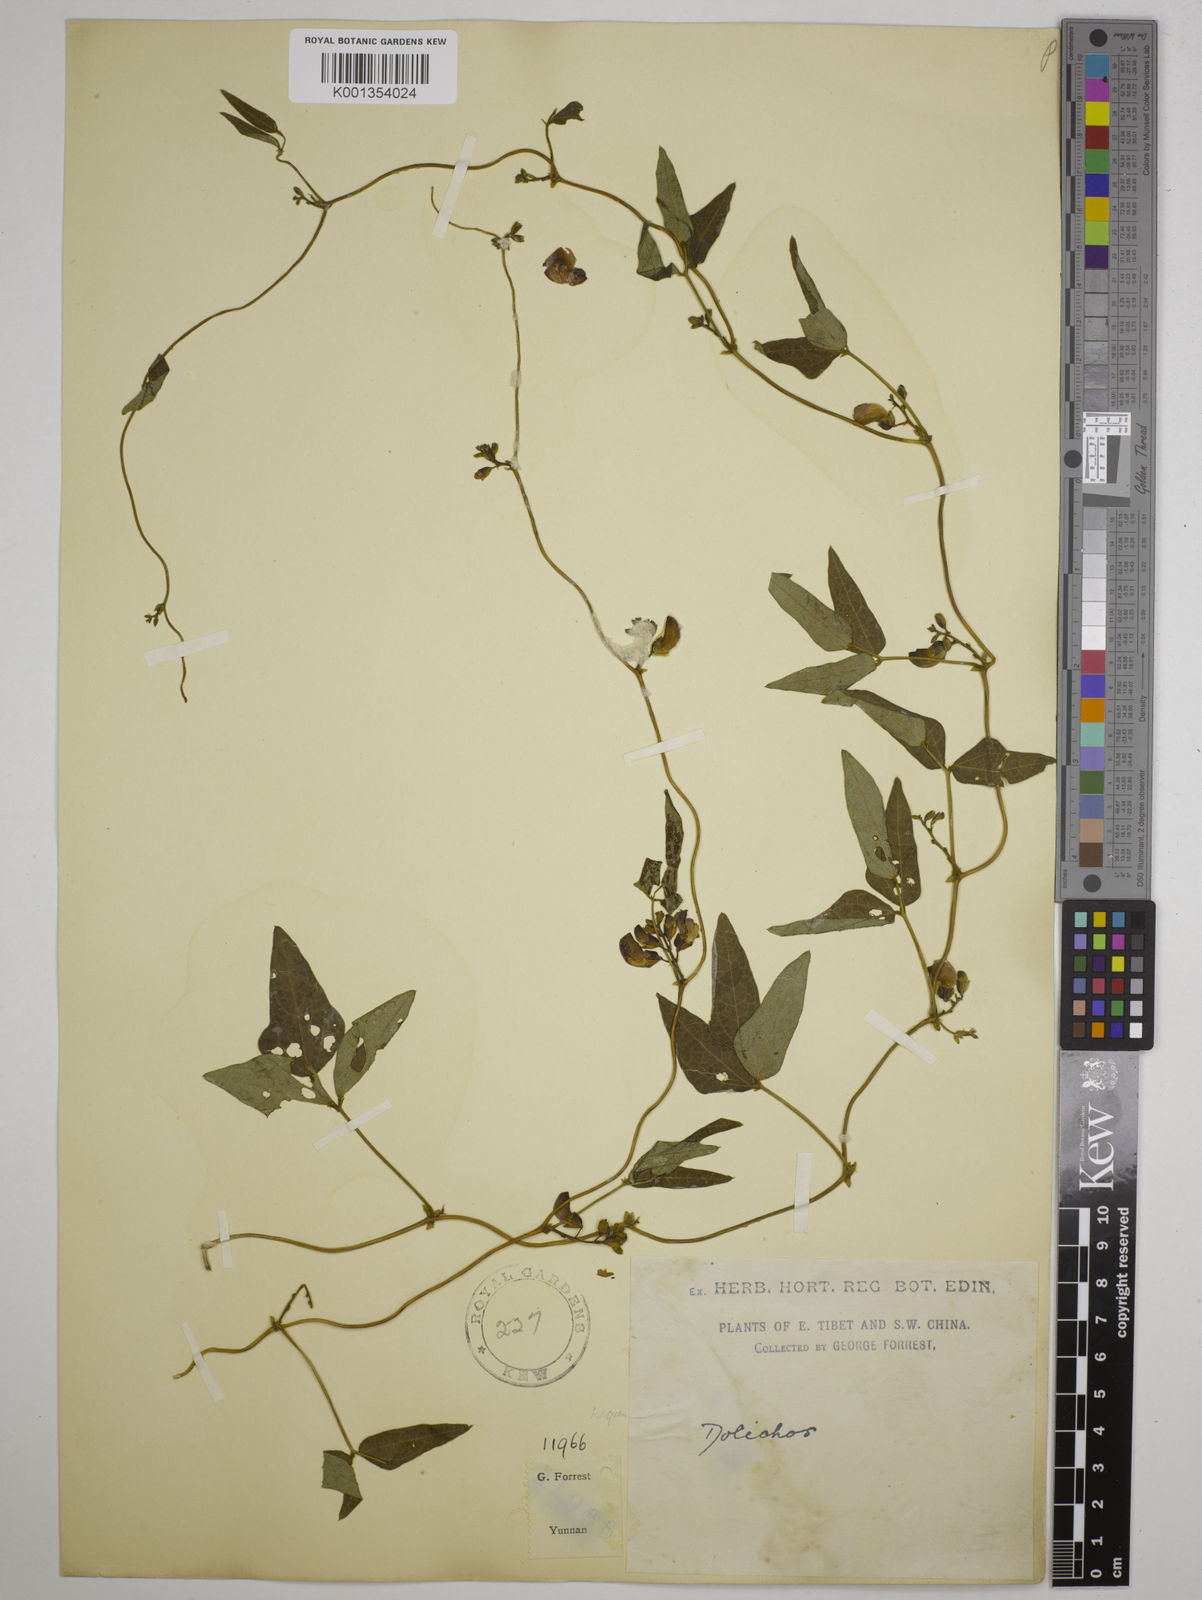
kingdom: Plantae
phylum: Tracheophyta
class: Magnoliopsida
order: Fabales
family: Fabaceae
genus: Dolichos
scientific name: Dolichos trilobus
